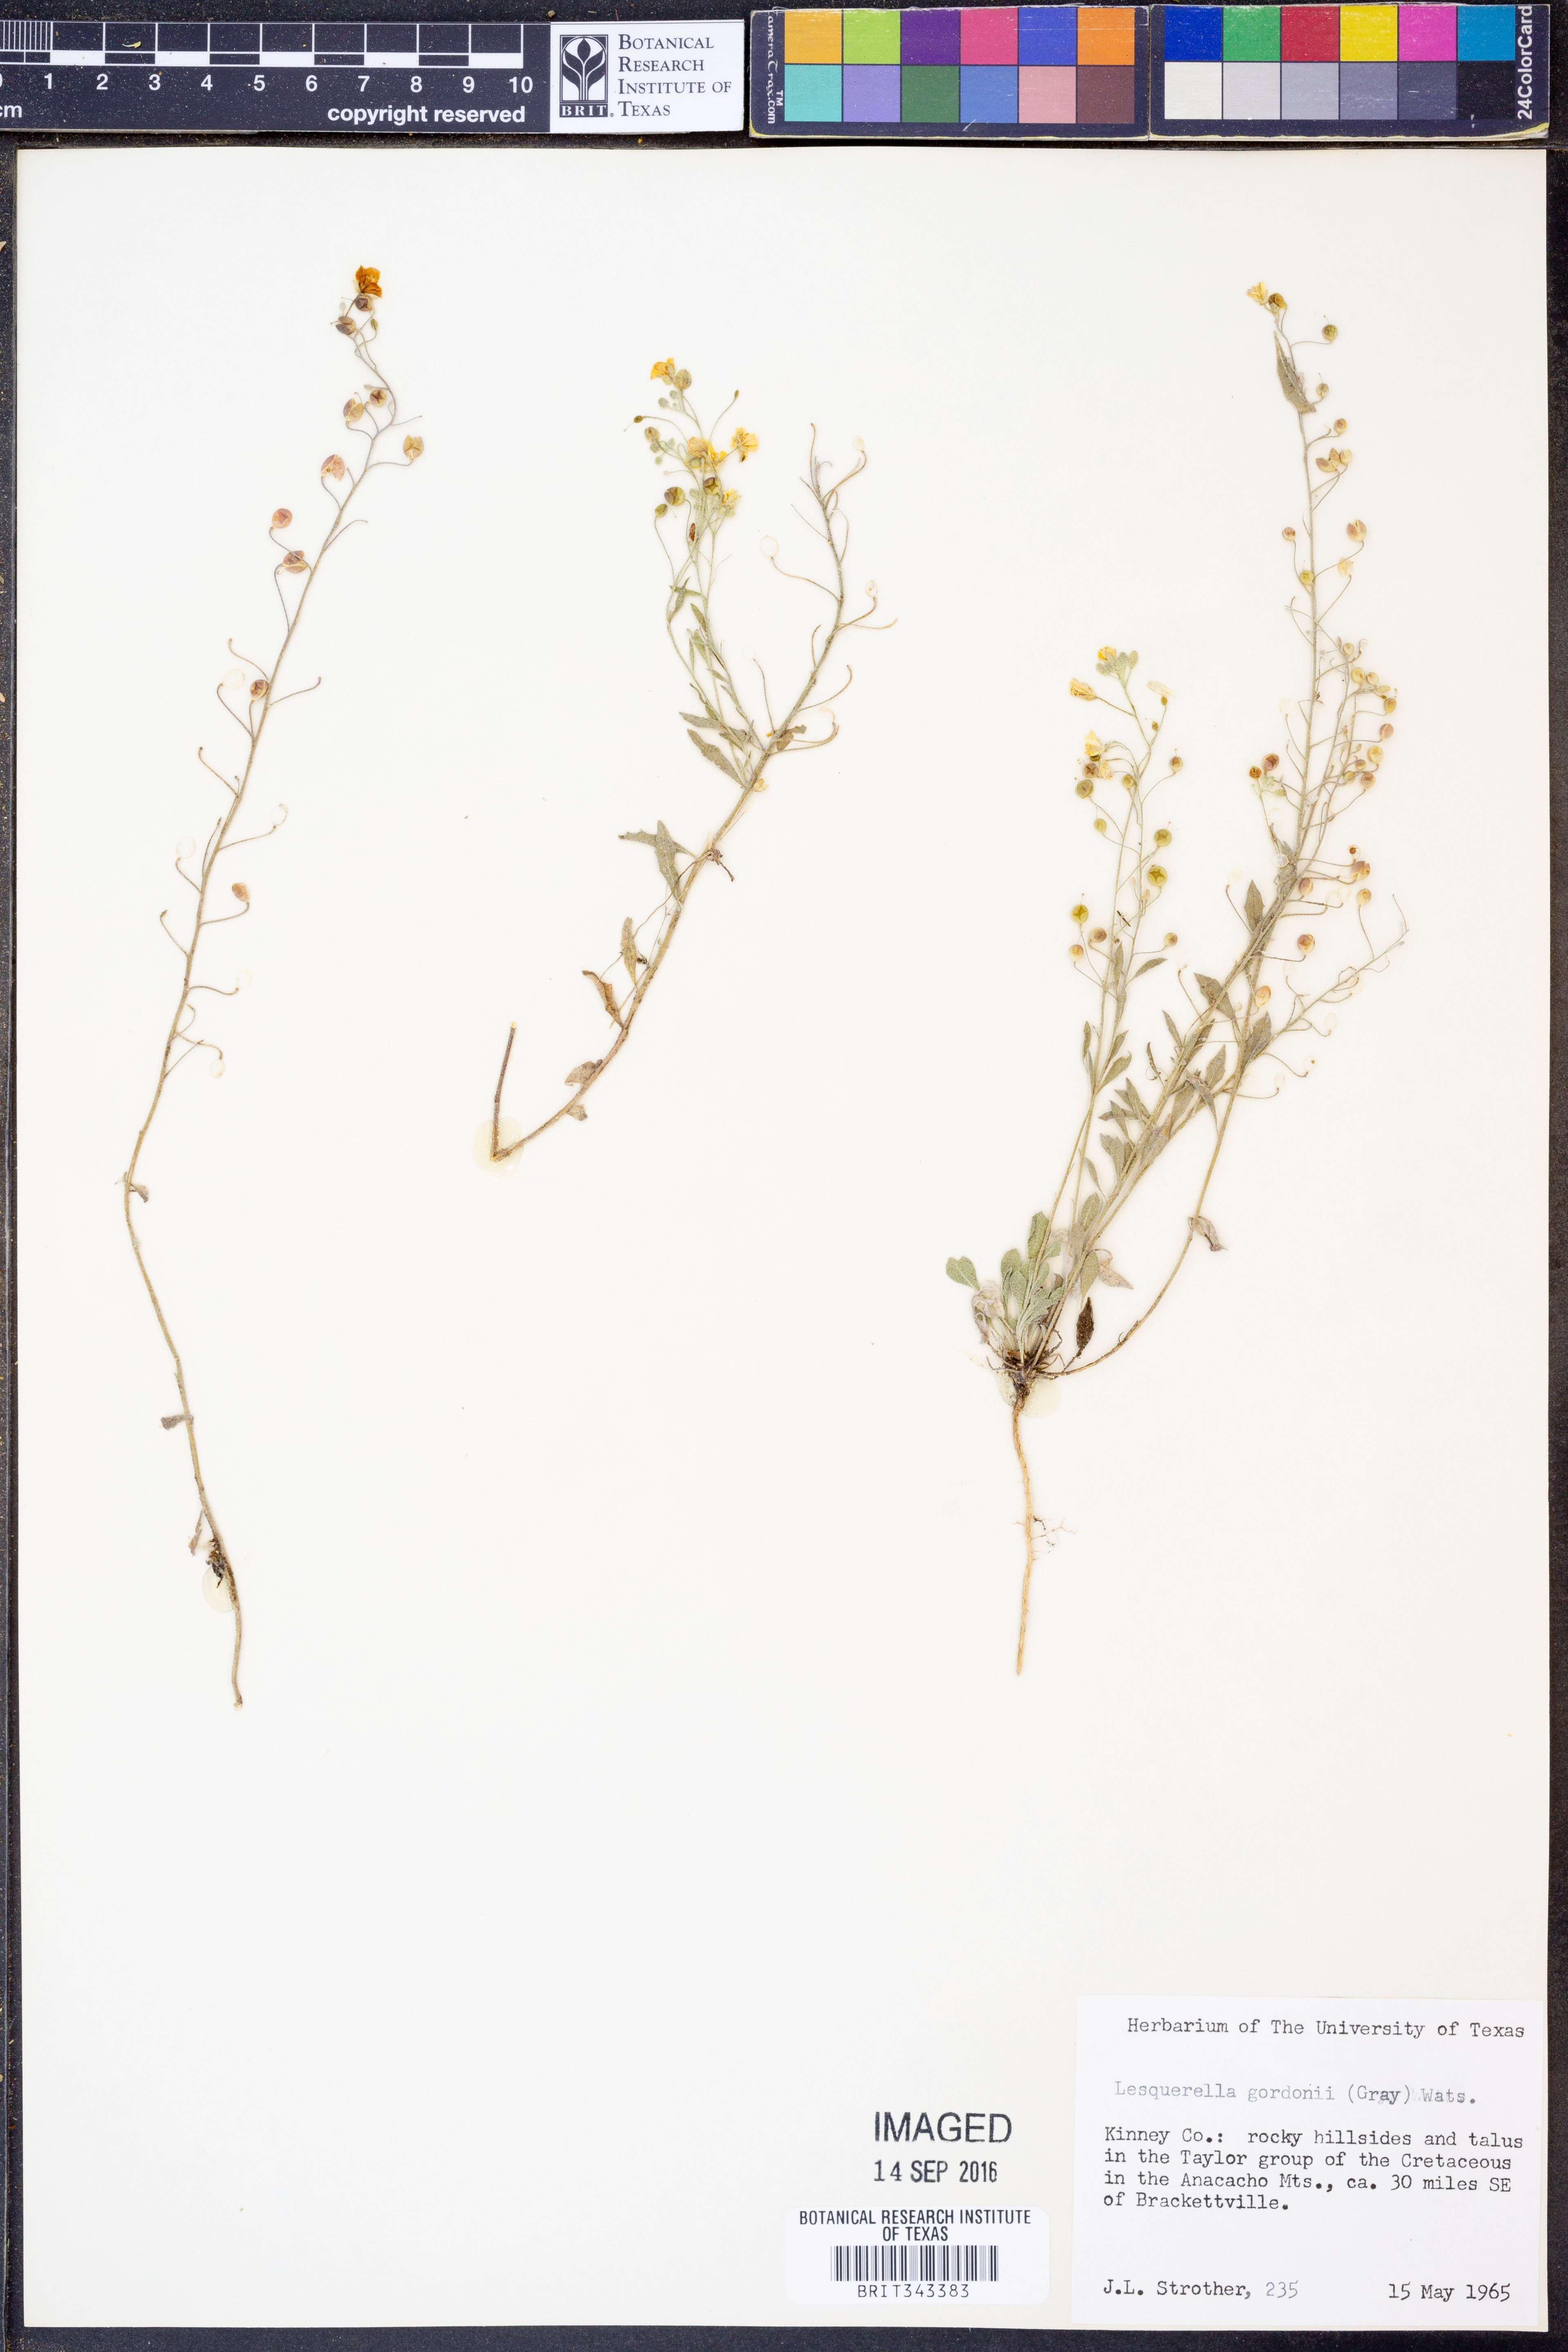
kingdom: Plantae
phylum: Tracheophyta
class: Magnoliopsida
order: Brassicales
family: Brassicaceae
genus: Physaria
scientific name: Physaria gordonii
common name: Gordon's bladderpod
